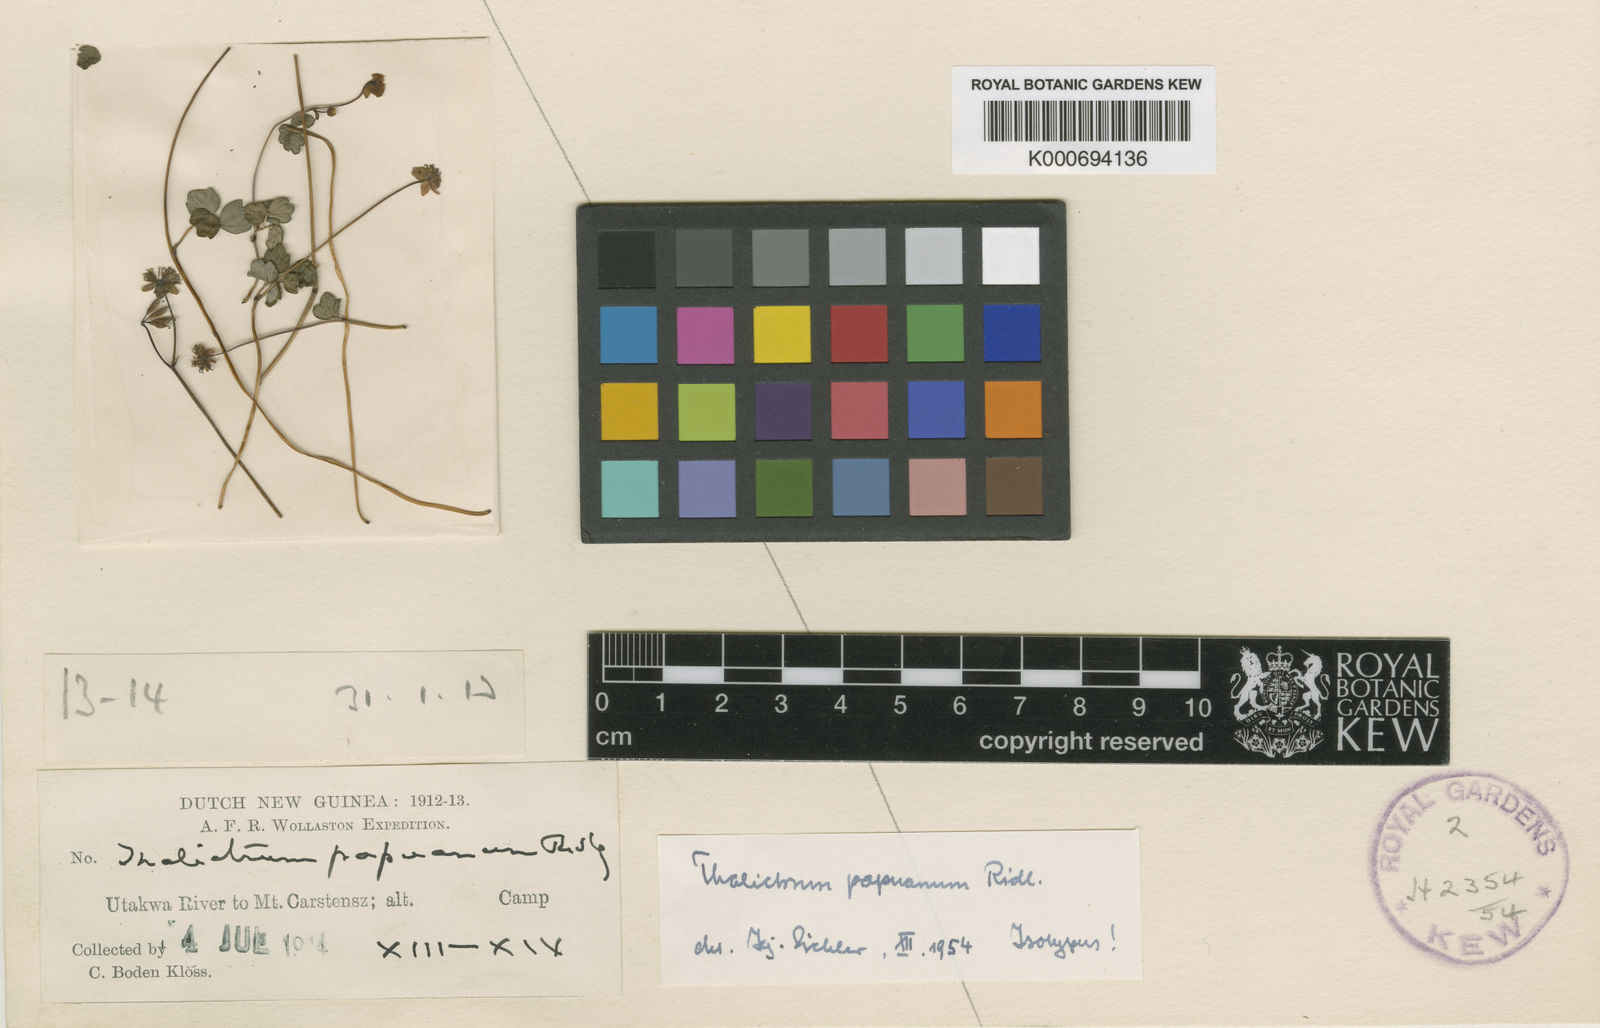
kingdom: Plantae
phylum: Tracheophyta
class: Magnoliopsida
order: Ranunculales
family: Ranunculaceae
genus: Thalictrum
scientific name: Thalictrum papuanum
